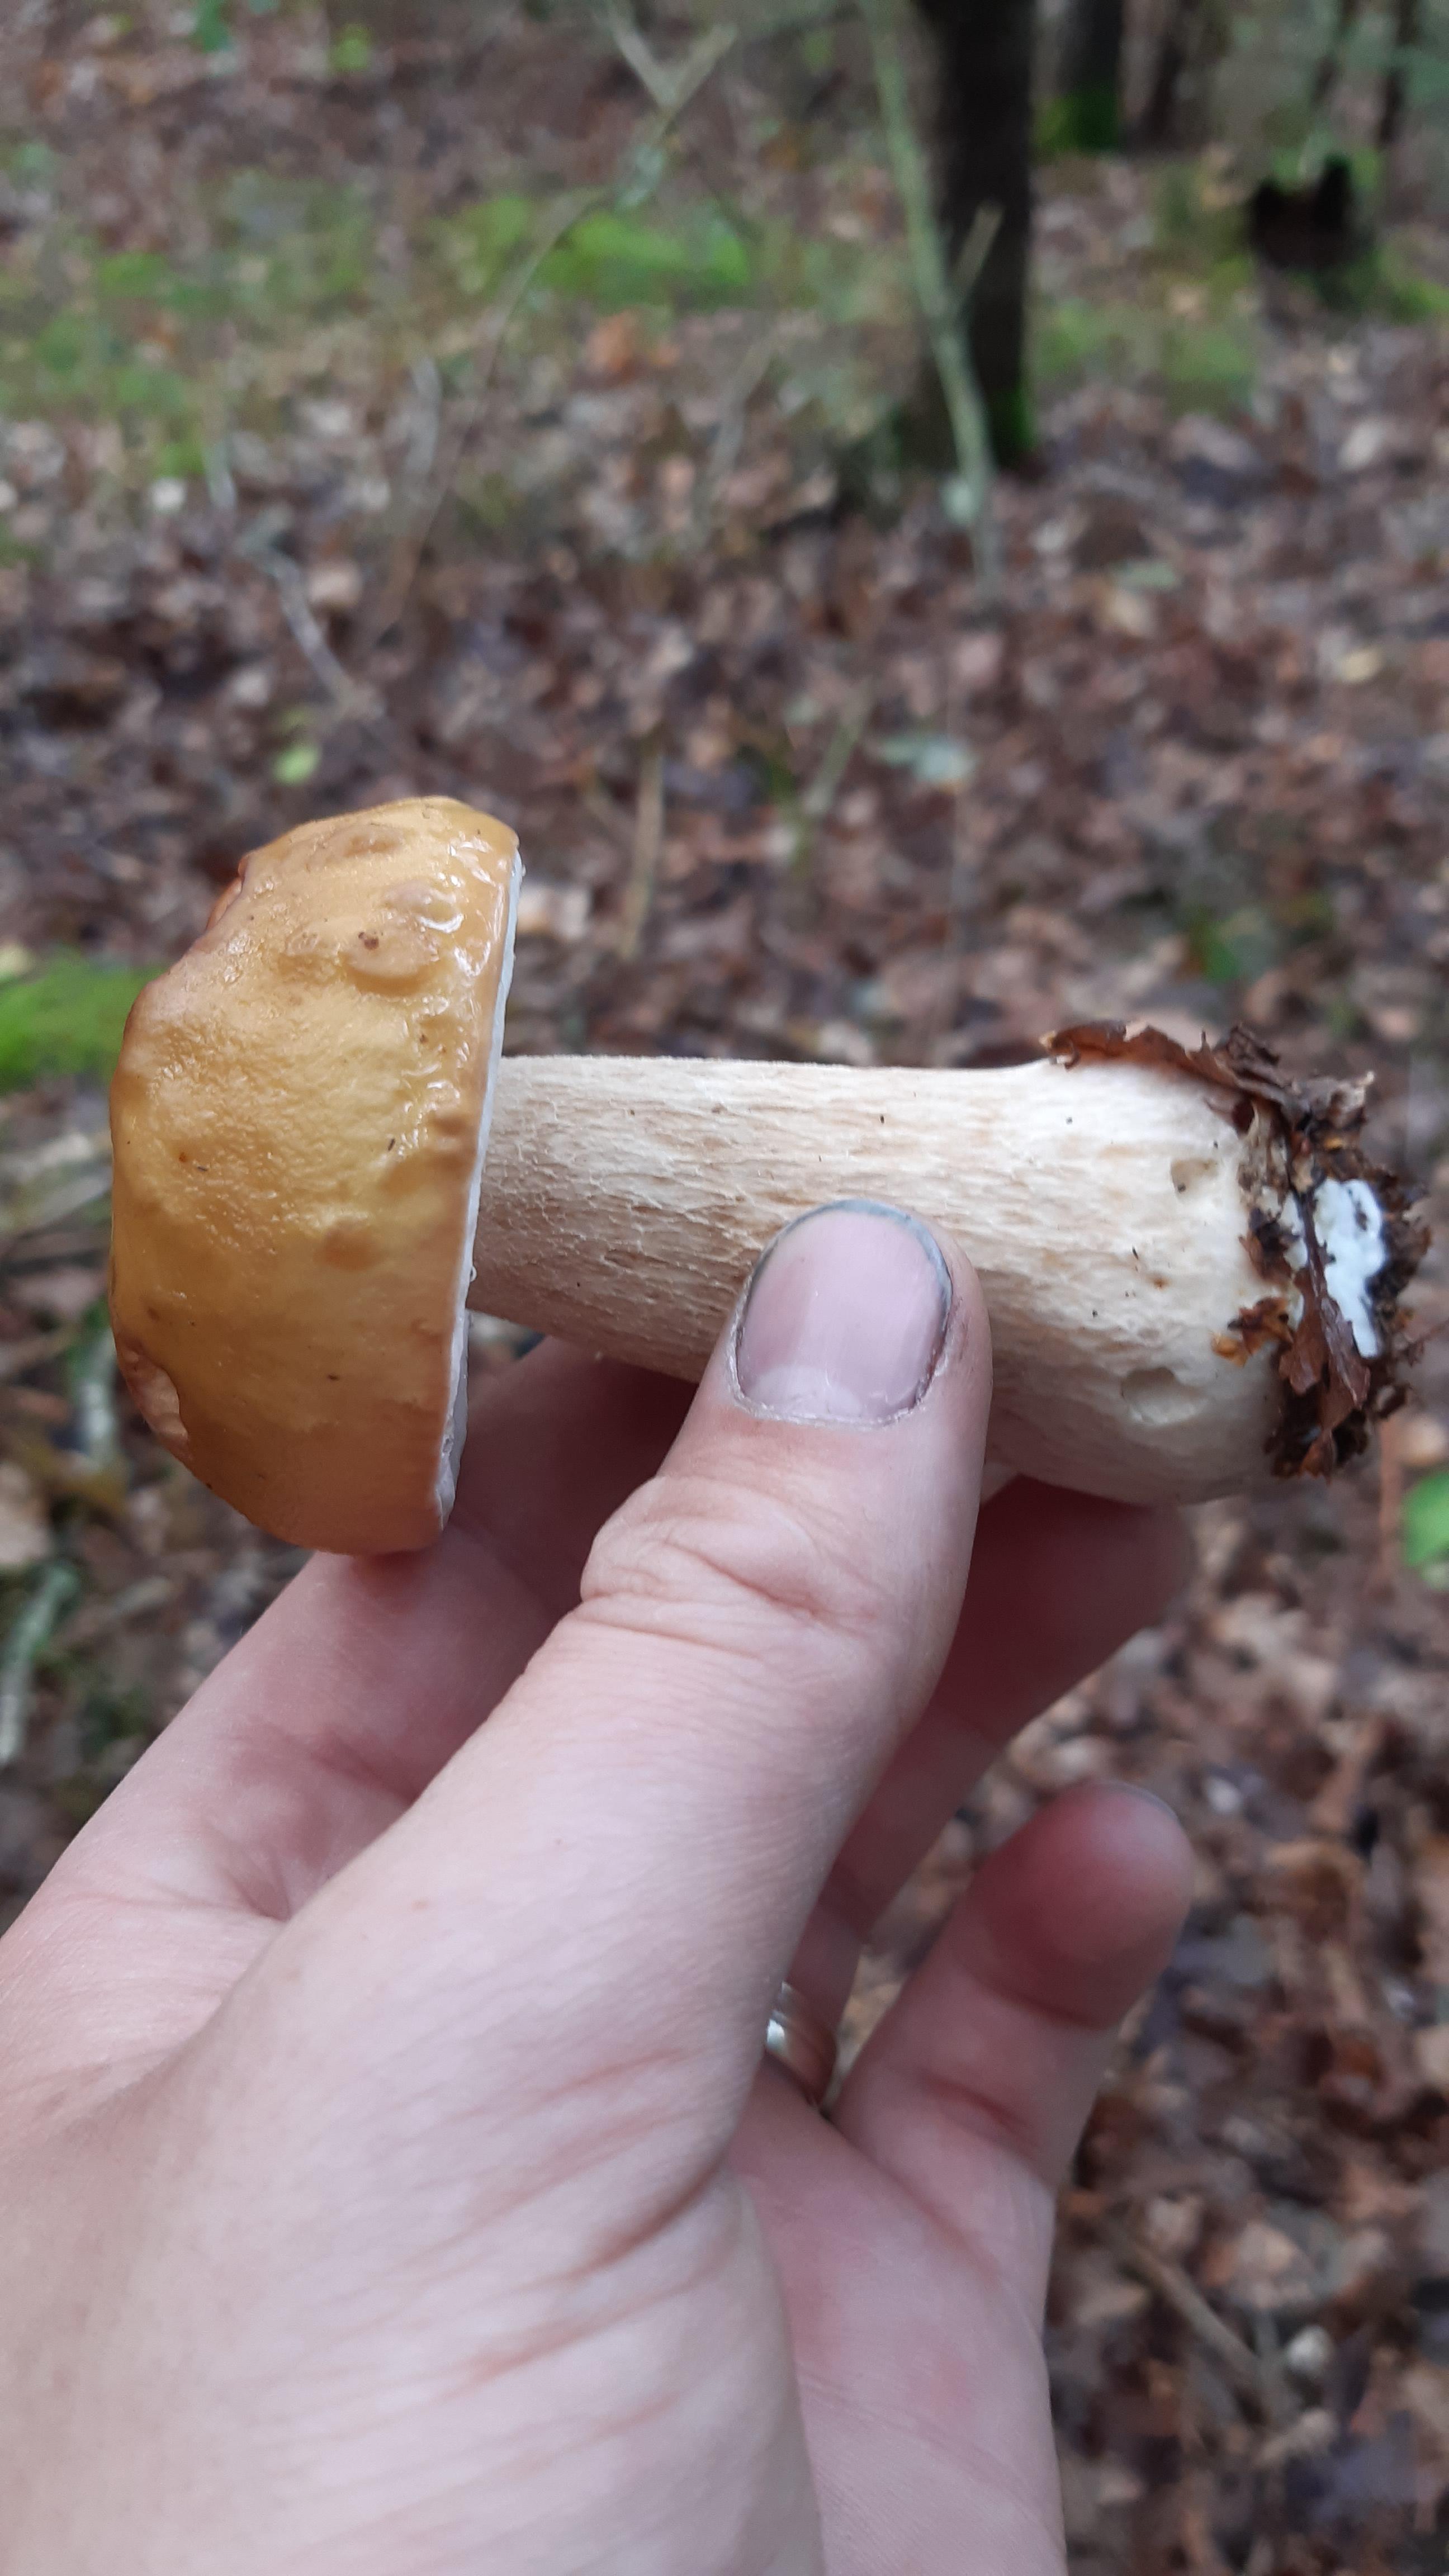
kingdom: Fungi
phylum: Basidiomycota
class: Agaricomycetes
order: Boletales
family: Boletaceae
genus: Boletus
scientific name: Boletus edulis
